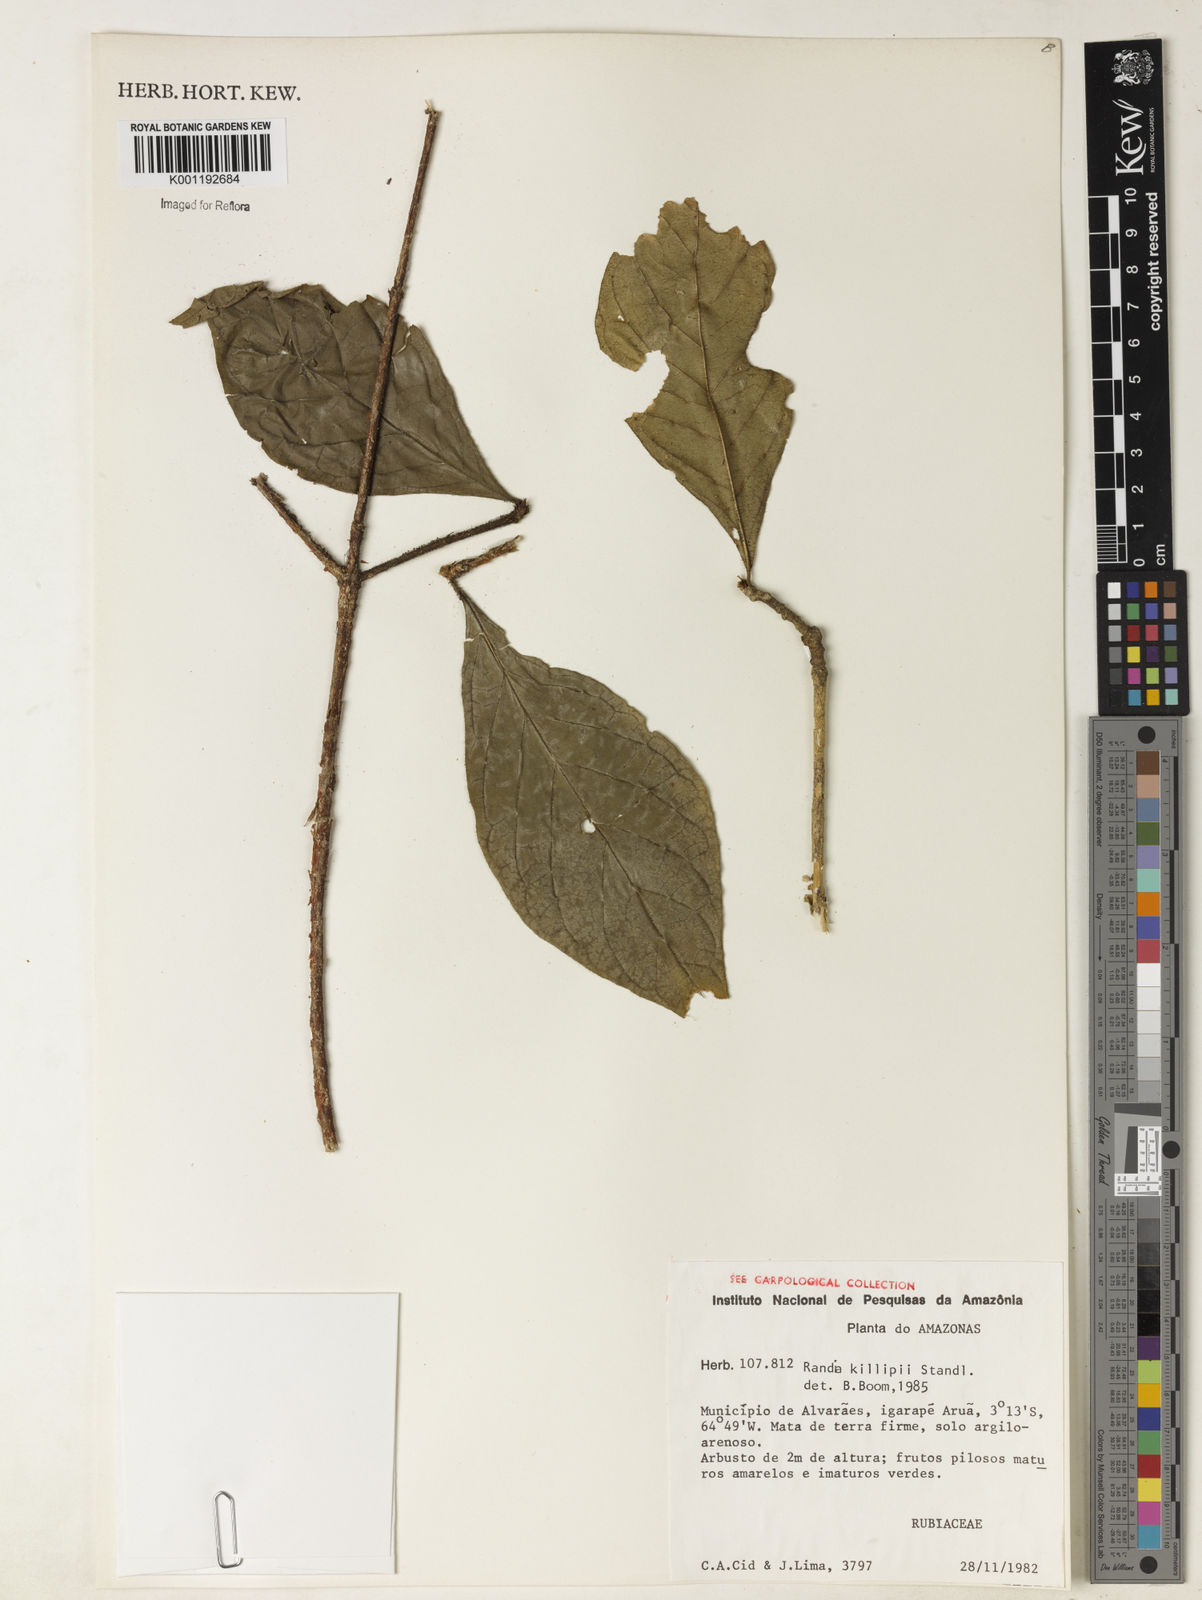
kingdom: Plantae
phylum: Tracheophyta
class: Magnoliopsida
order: Gentianales
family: Rubiaceae
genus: Cordiera
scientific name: Cordiera killipii
